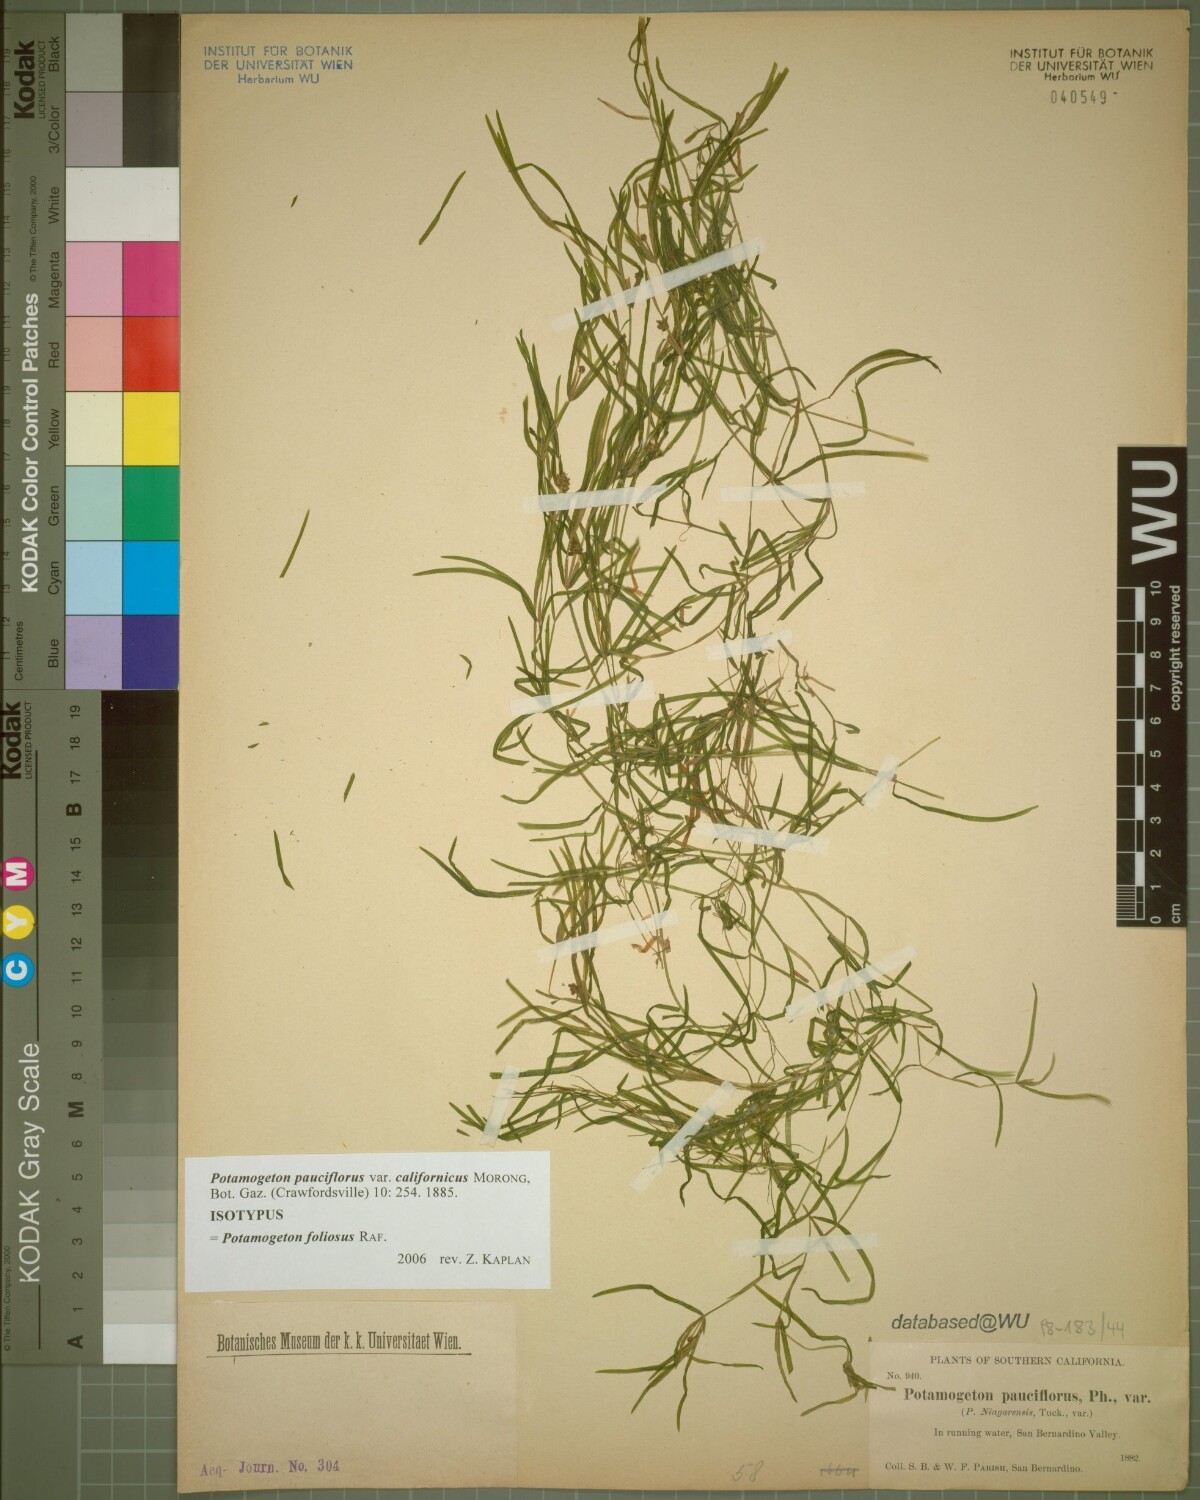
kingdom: Plantae
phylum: Tracheophyta
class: Liliopsida
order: Alismatales
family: Potamogetonaceae
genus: Potamogeton
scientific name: Potamogeton foliosus
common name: Leafy pondweed
